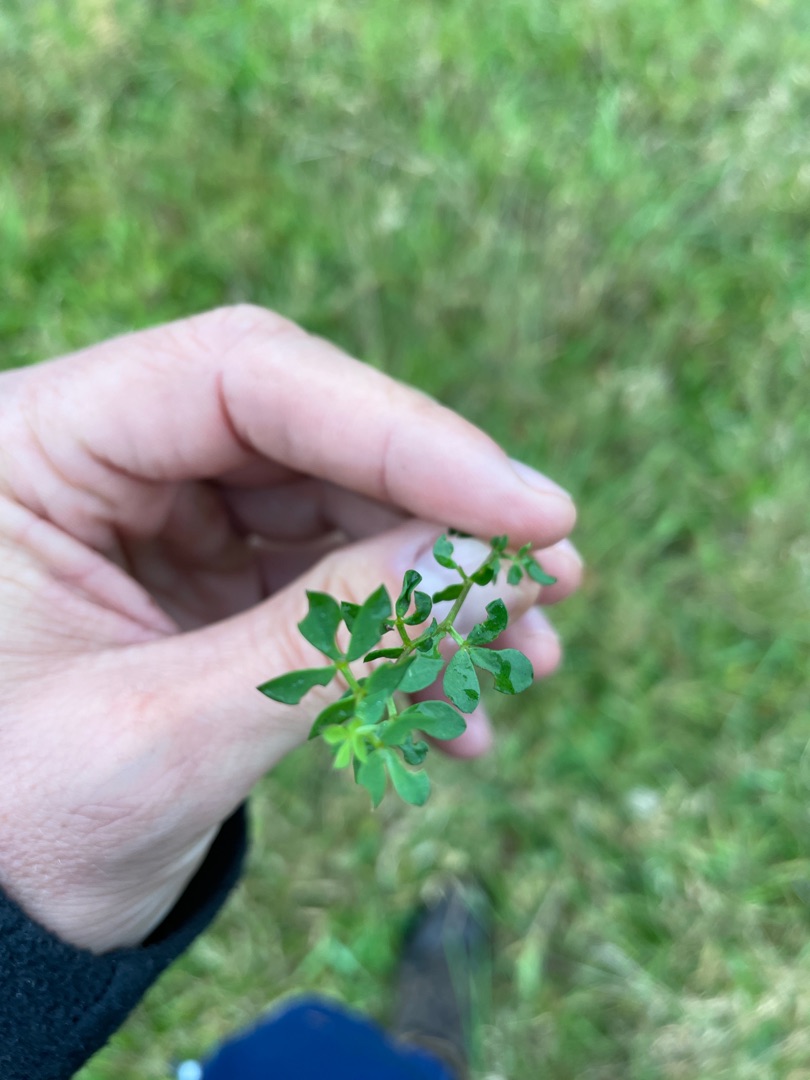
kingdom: Plantae
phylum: Tracheophyta
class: Magnoliopsida
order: Fabales
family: Fabaceae
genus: Lotus
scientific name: Lotus corniculatus
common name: Almindelig kællingetand
